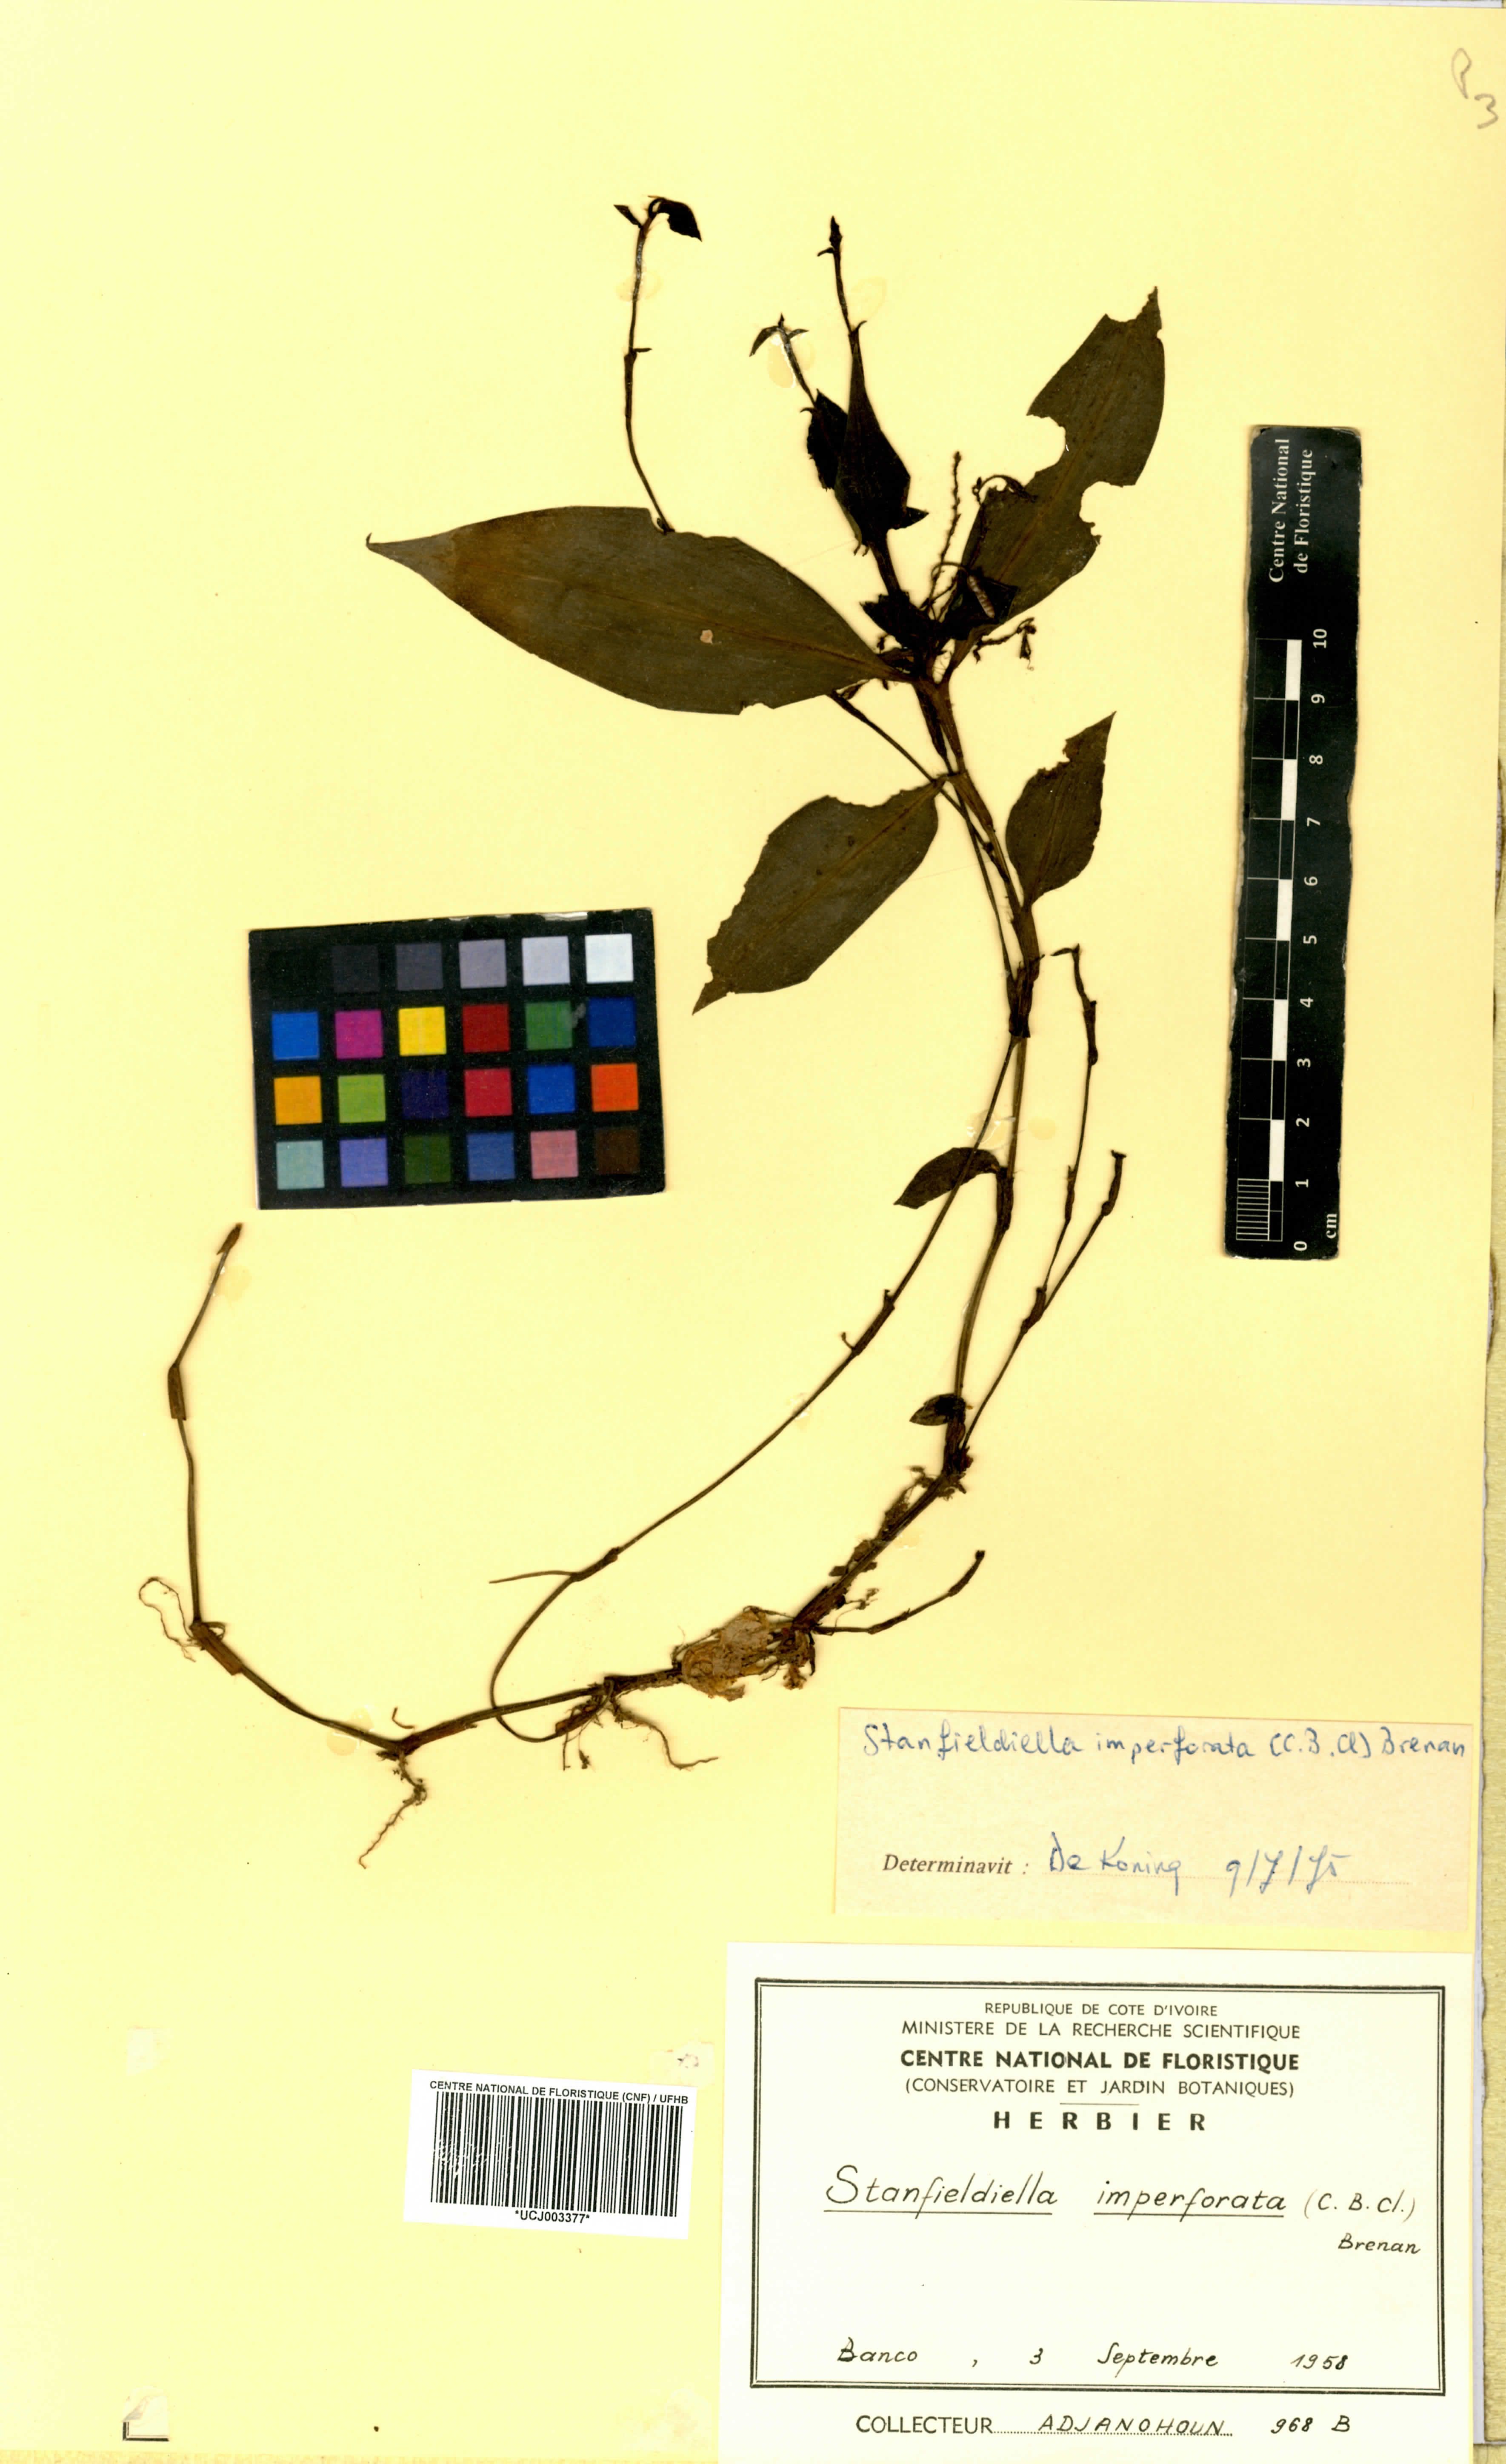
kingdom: Plantae
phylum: Tracheophyta
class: Liliopsida
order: Commelinales
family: Commelinaceae
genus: Stanfieldiella
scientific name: Stanfieldiella imperforata
